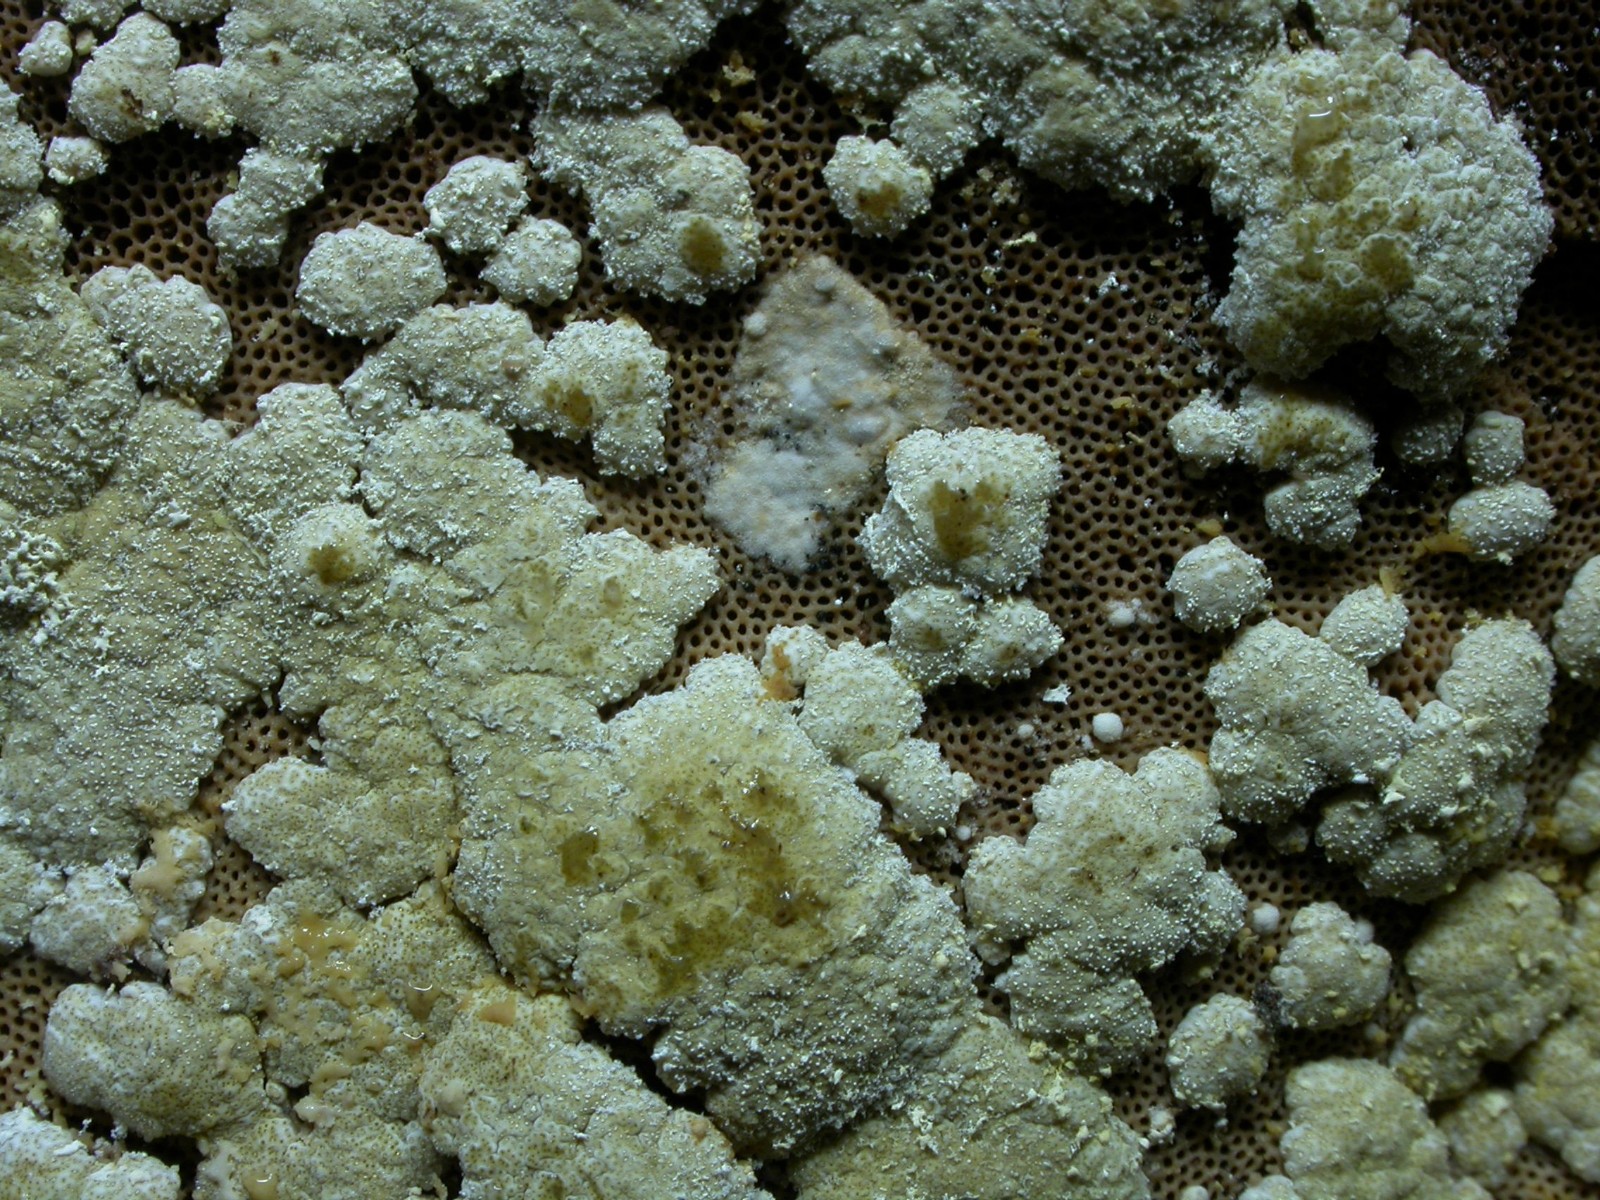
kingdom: Fungi
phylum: Ascomycota
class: Sordariomycetes
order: Hypocreales
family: Hypocreaceae
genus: Trichoderma
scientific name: Trichoderma pulvinatum
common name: snyltende kødkerne
